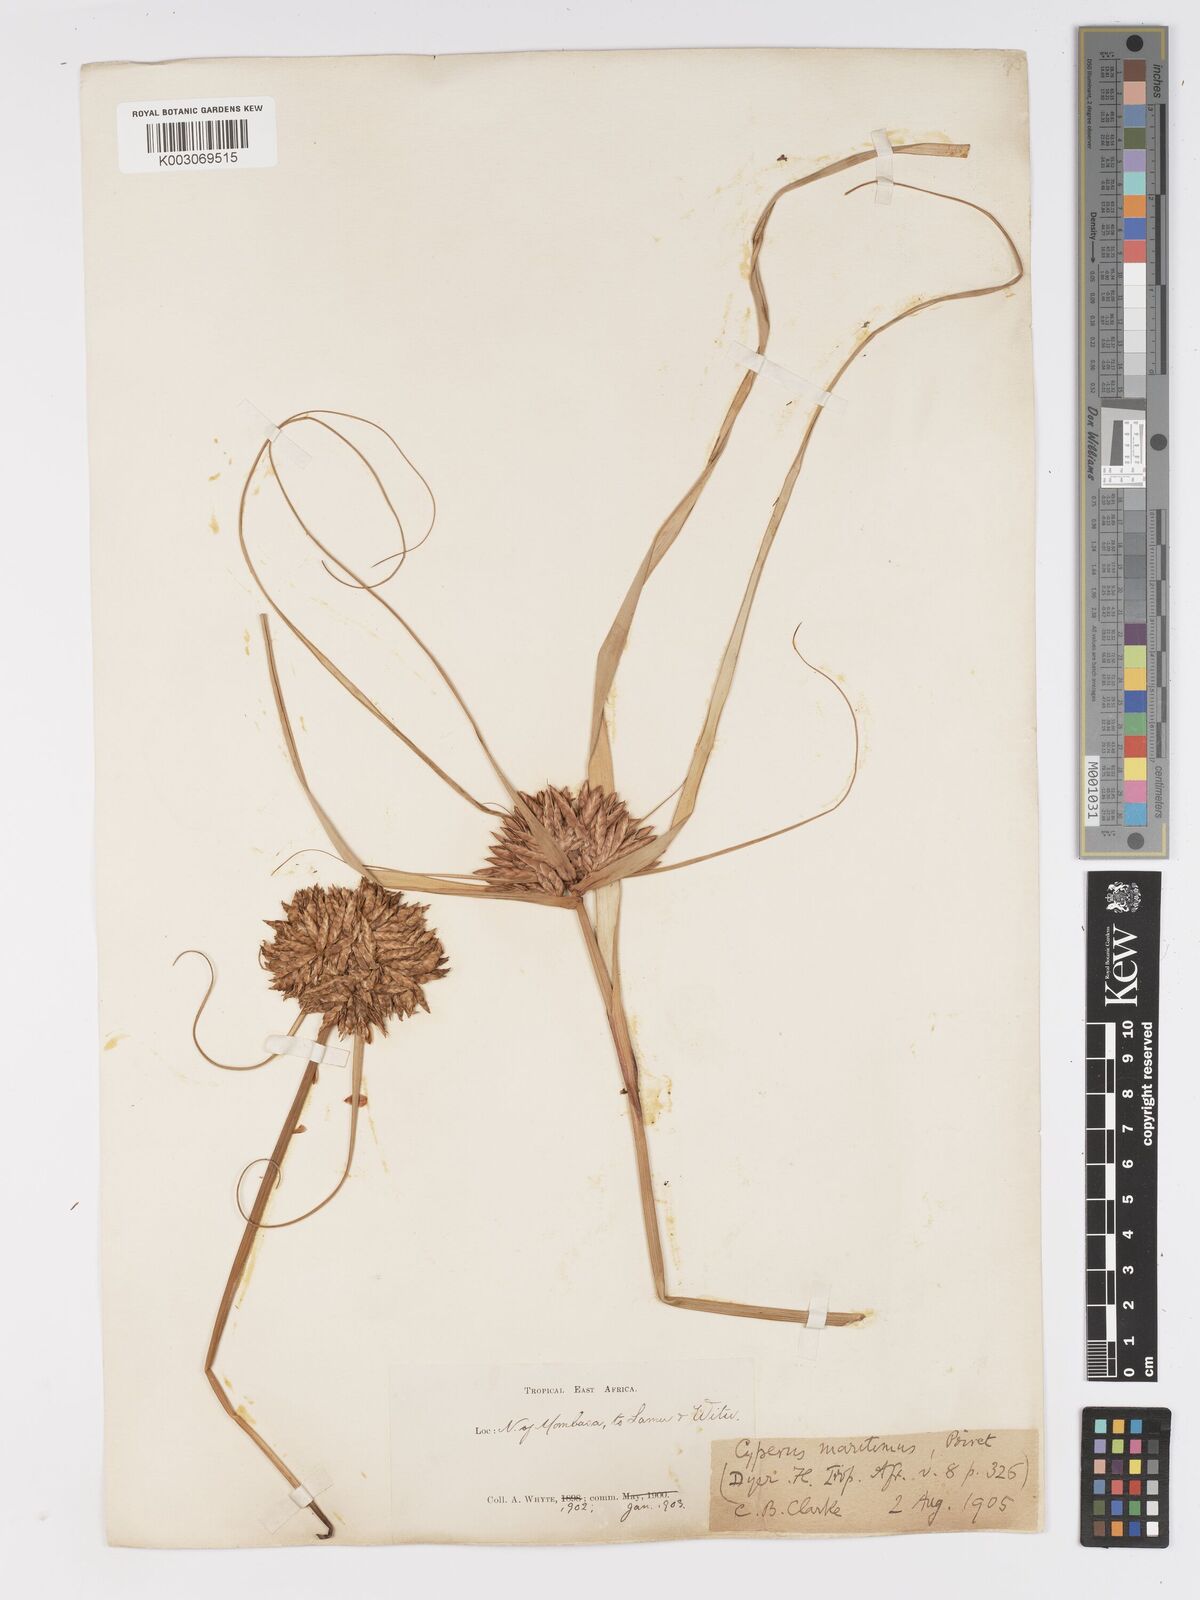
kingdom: Plantae
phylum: Tracheophyta
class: Liliopsida
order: Poales
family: Cyperaceae
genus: Cyperus
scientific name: Cyperus crassipes
